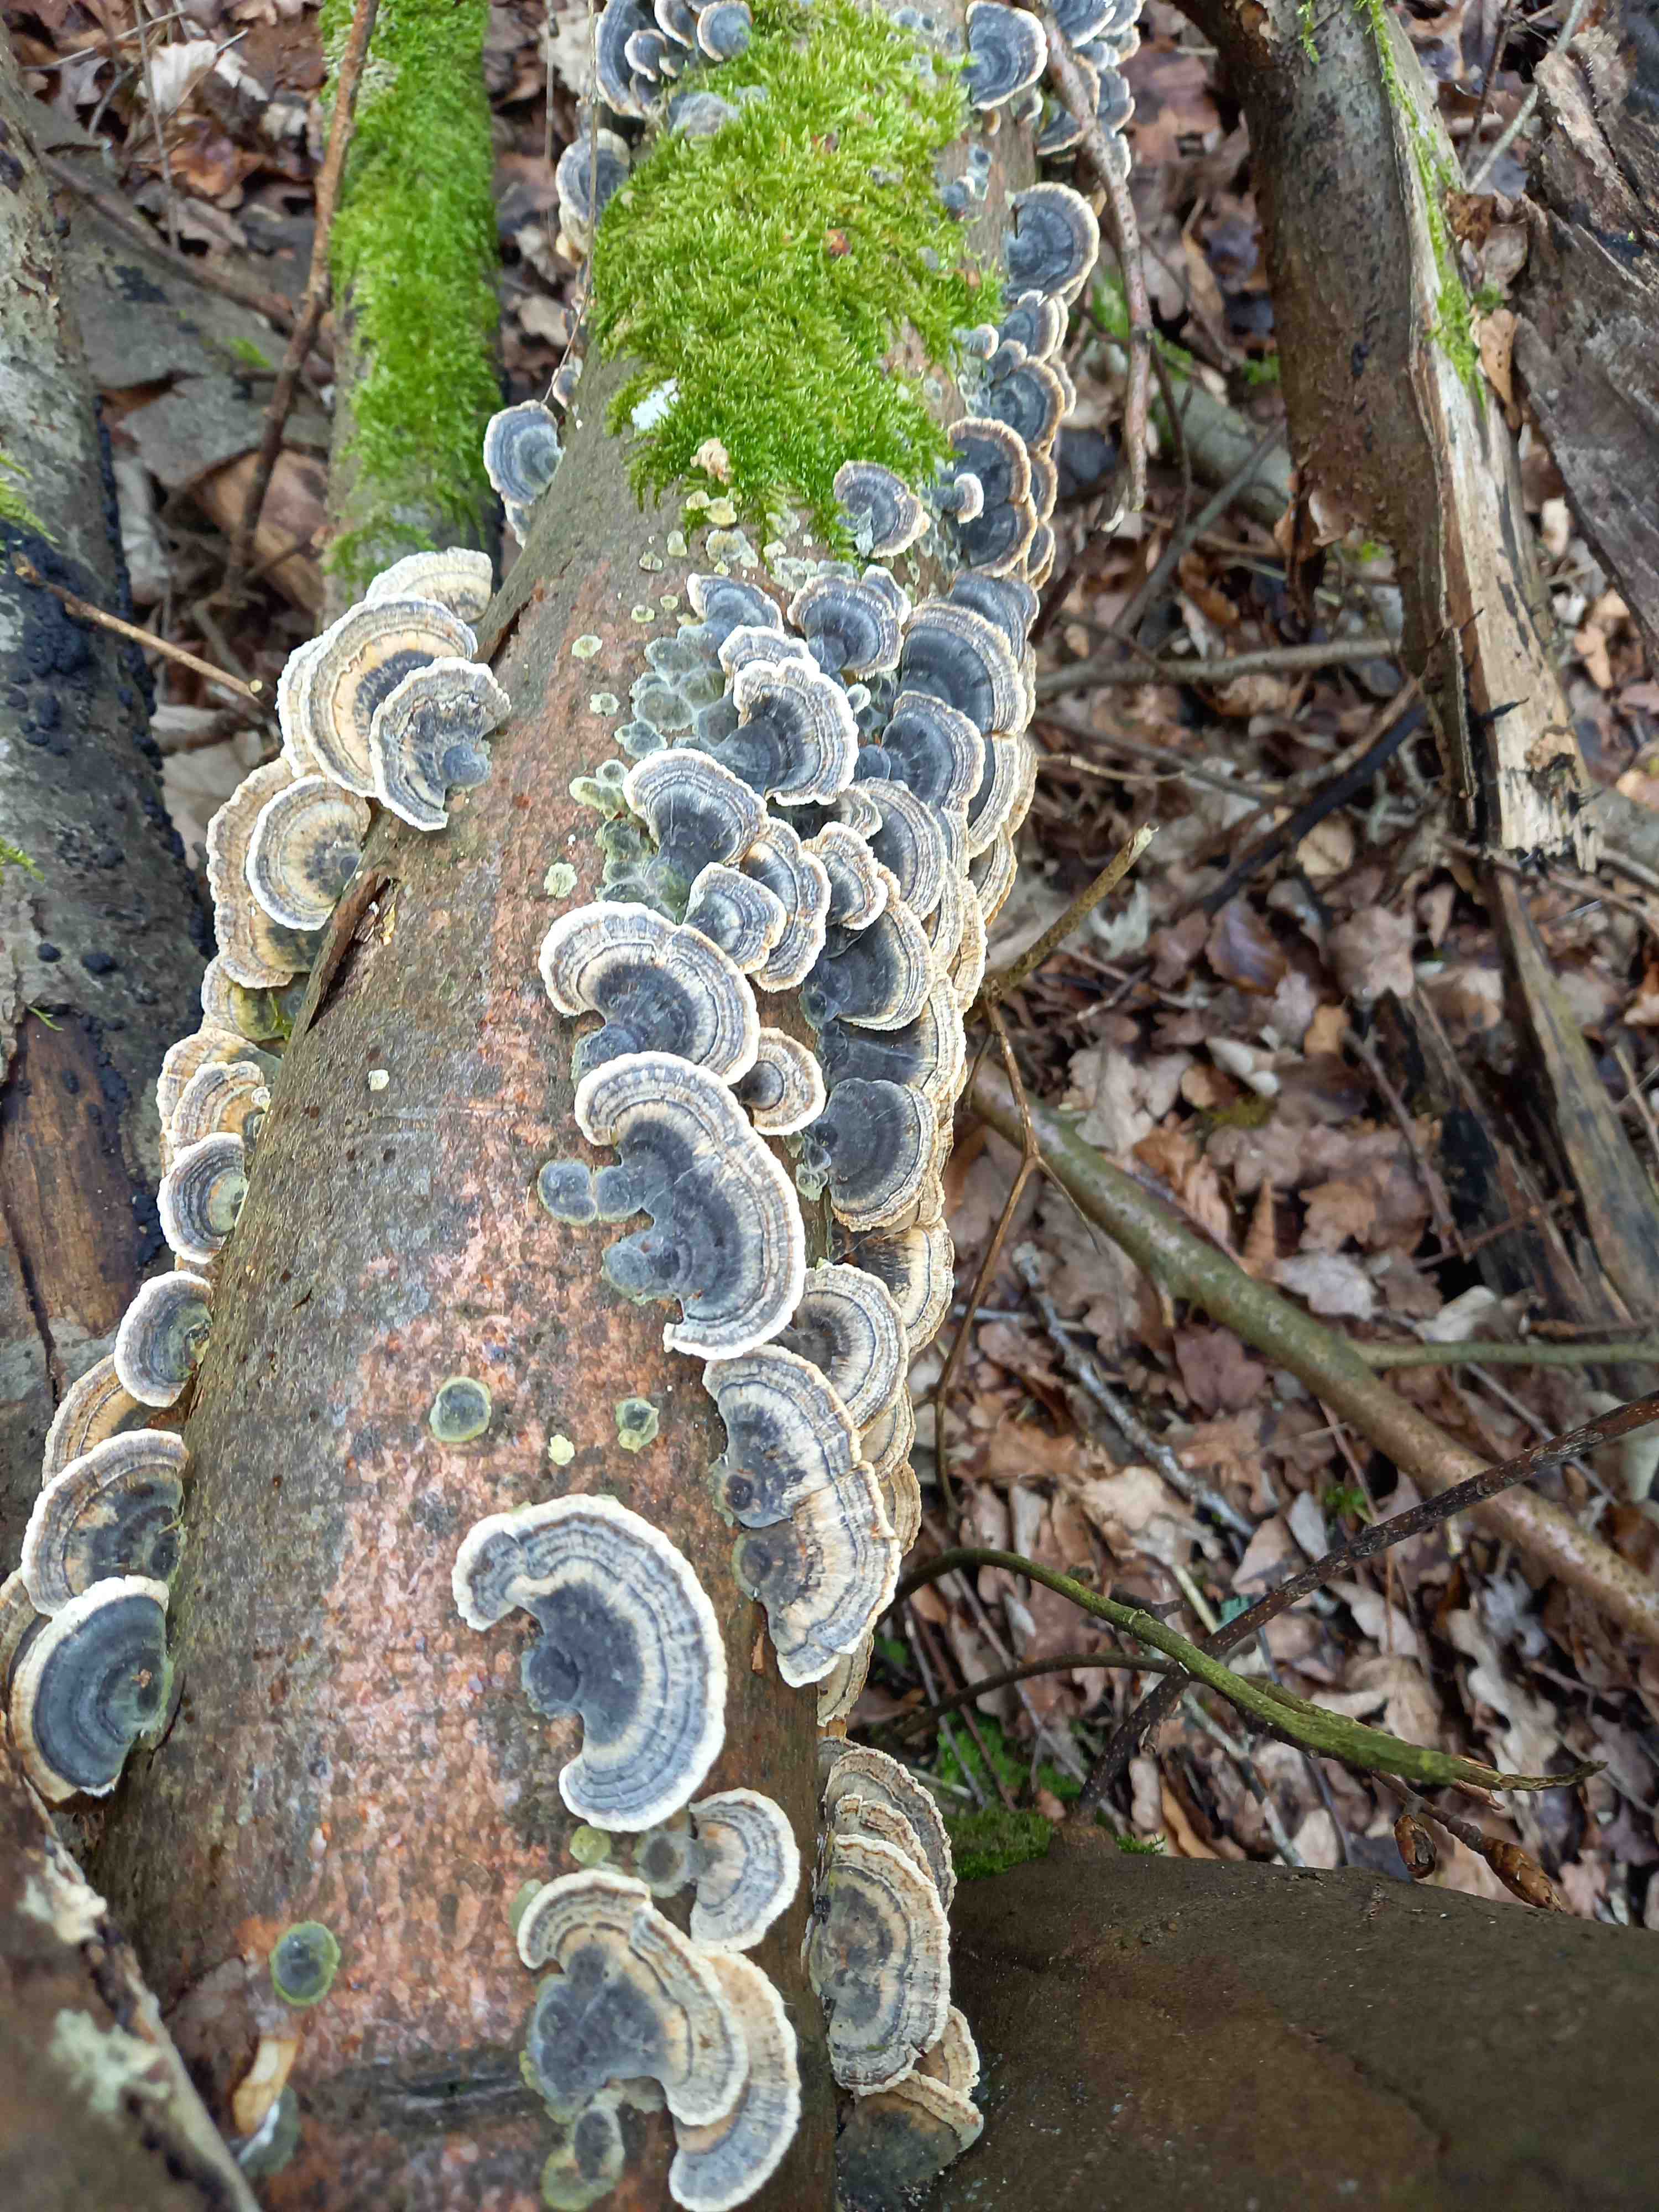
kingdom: Fungi
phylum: Basidiomycota
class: Agaricomycetes
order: Polyporales
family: Polyporaceae
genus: Trametes
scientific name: Trametes versicolor
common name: broget læderporesvamp
